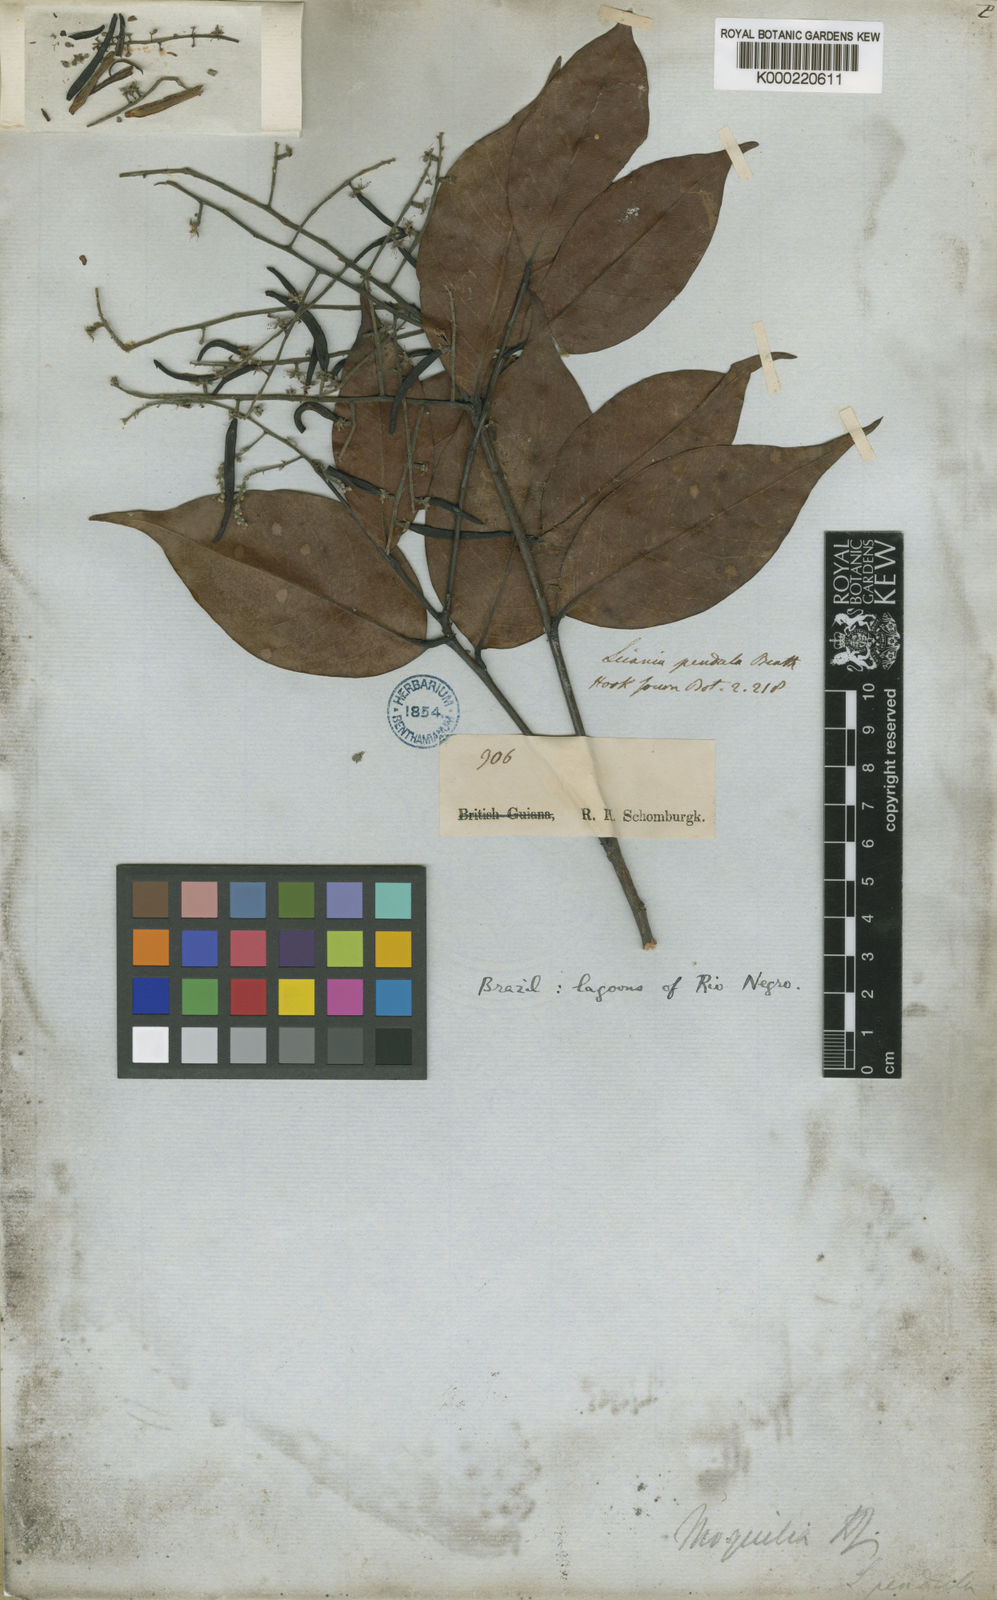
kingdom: Plantae
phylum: Tracheophyta
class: Magnoliopsida
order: Malpighiales
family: Chrysobalanaceae
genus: Leptobalanus
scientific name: Leptobalanus apetalus
